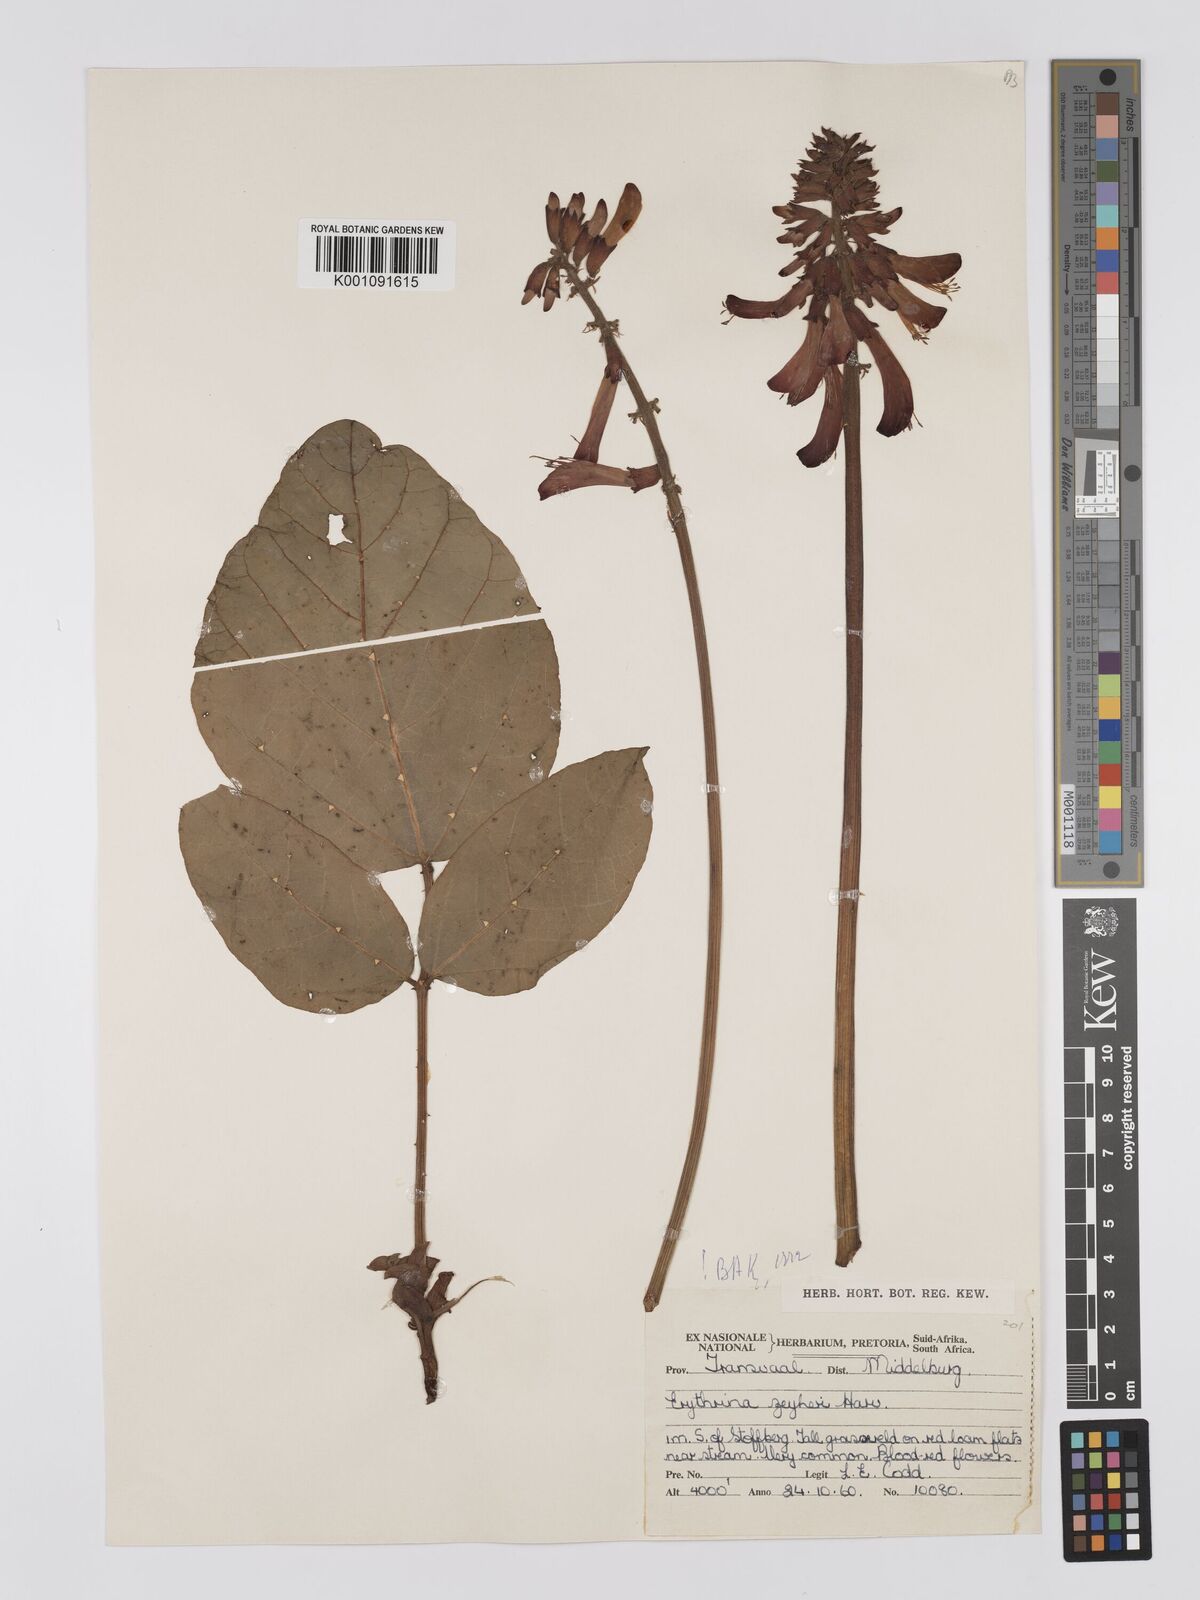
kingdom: Plantae
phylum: Tracheophyta
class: Magnoliopsida
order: Fabales
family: Fabaceae
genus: Erythrina
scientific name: Erythrina zeyheri
